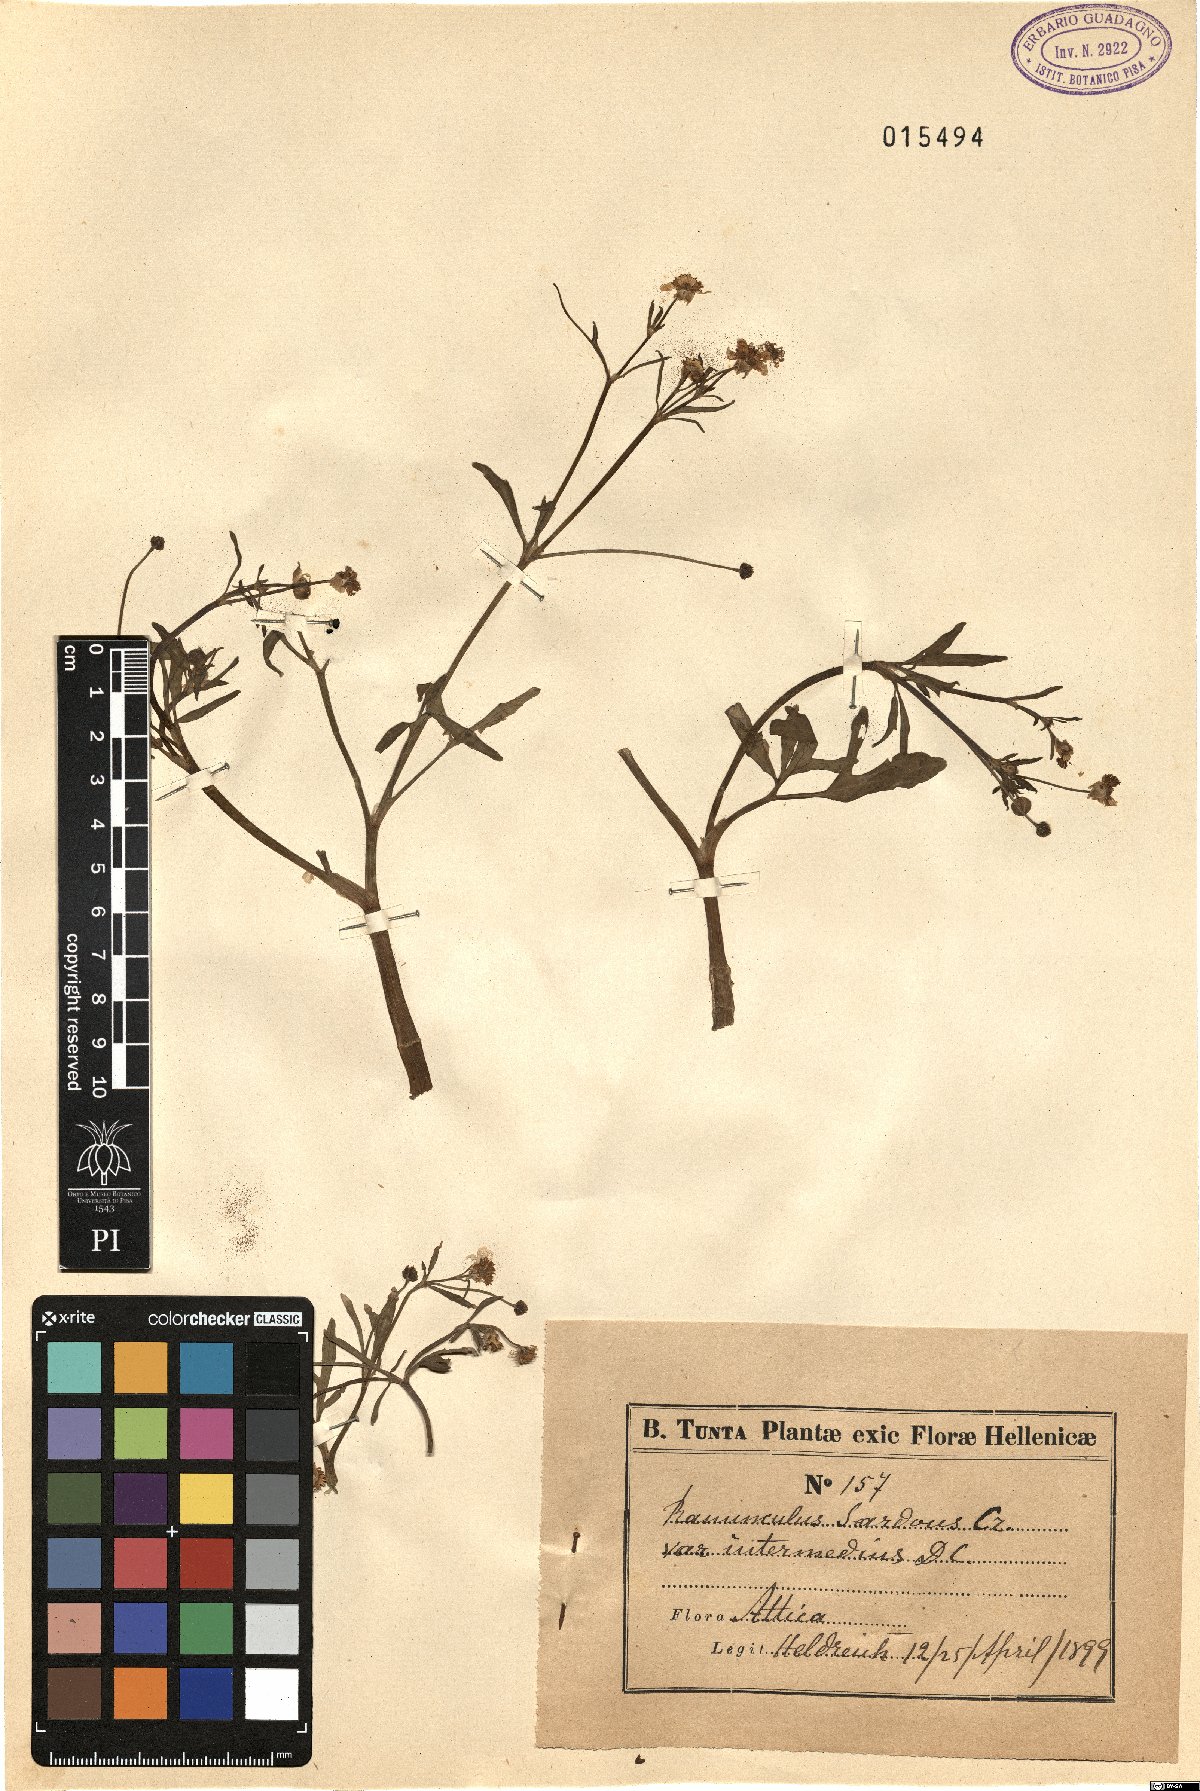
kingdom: Plantae
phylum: Tracheophyta
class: Magnoliopsida
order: Ranunculales
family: Ranunculaceae
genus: Ranunculus
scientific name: Ranunculus sardous
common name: Hairy buttercup
